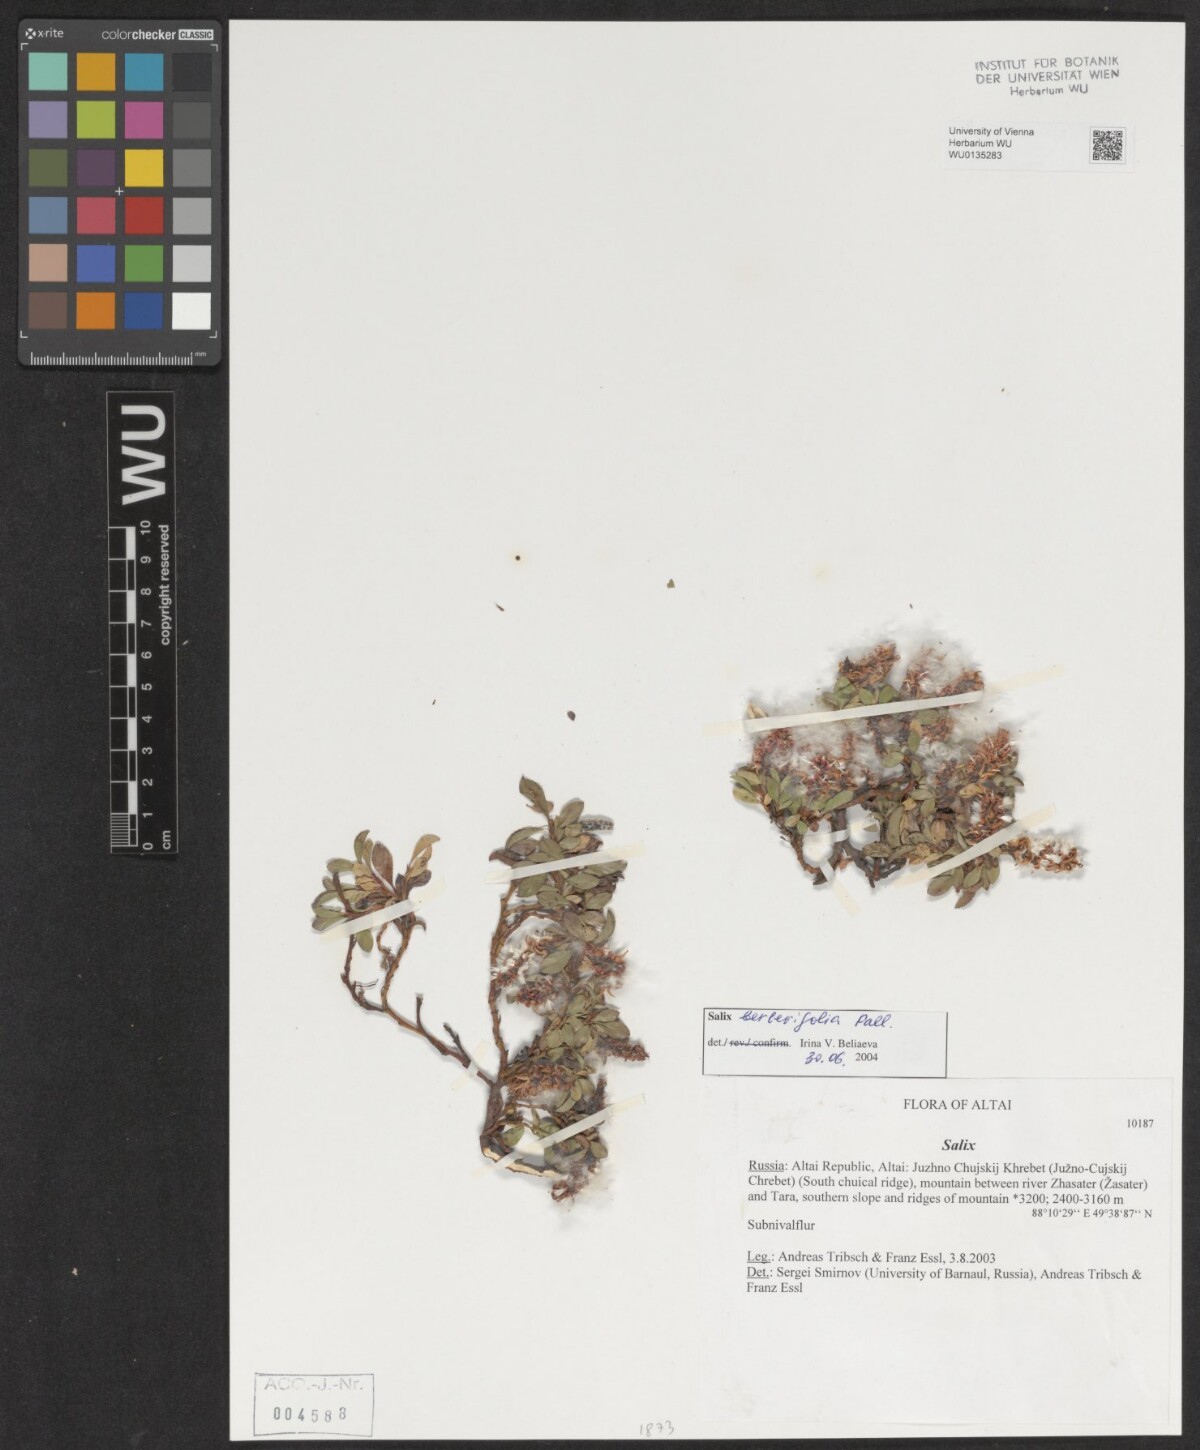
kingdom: Plantae
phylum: Tracheophyta
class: Magnoliopsida
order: Malpighiales
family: Salicaceae
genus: Salix
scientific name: Salix berberifolia
